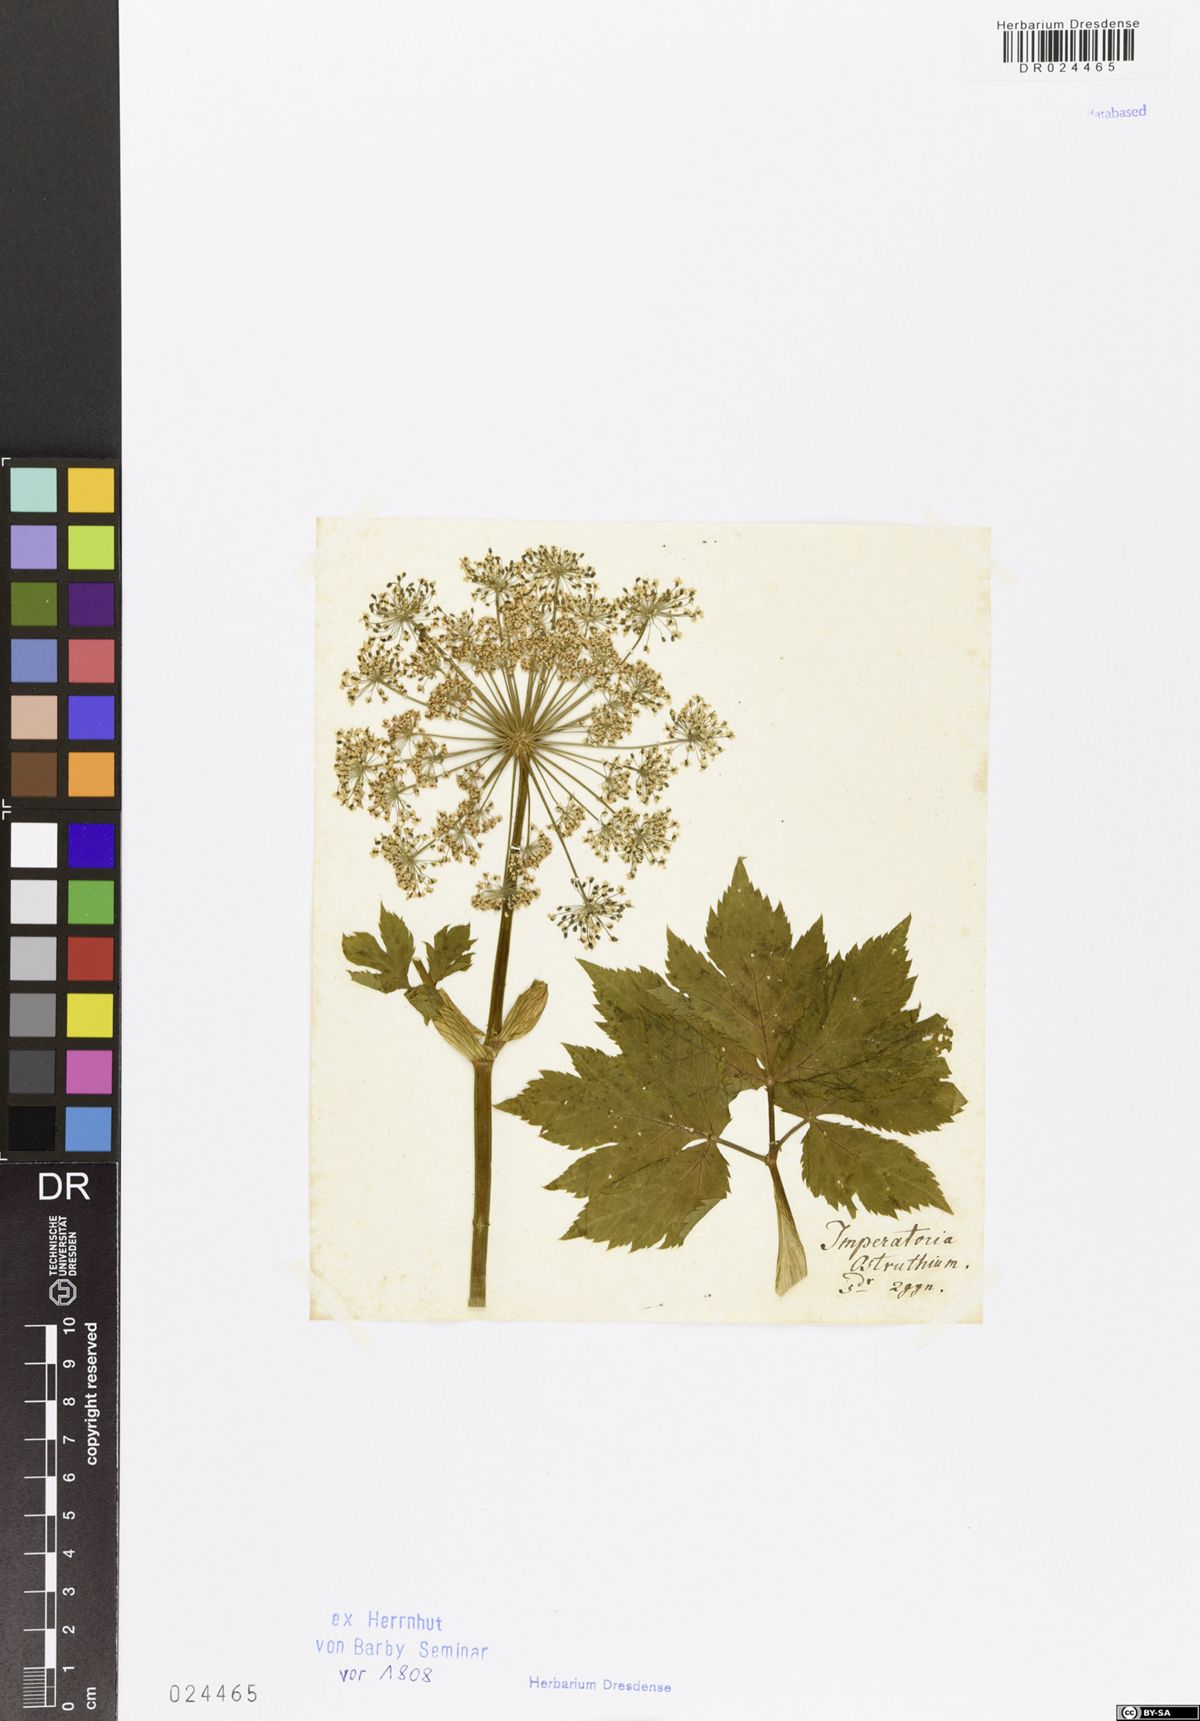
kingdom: Plantae
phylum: Tracheophyta
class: Magnoliopsida
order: Apiales
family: Apiaceae
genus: Imperatoria
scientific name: Imperatoria ostruthium
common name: Masterwort
